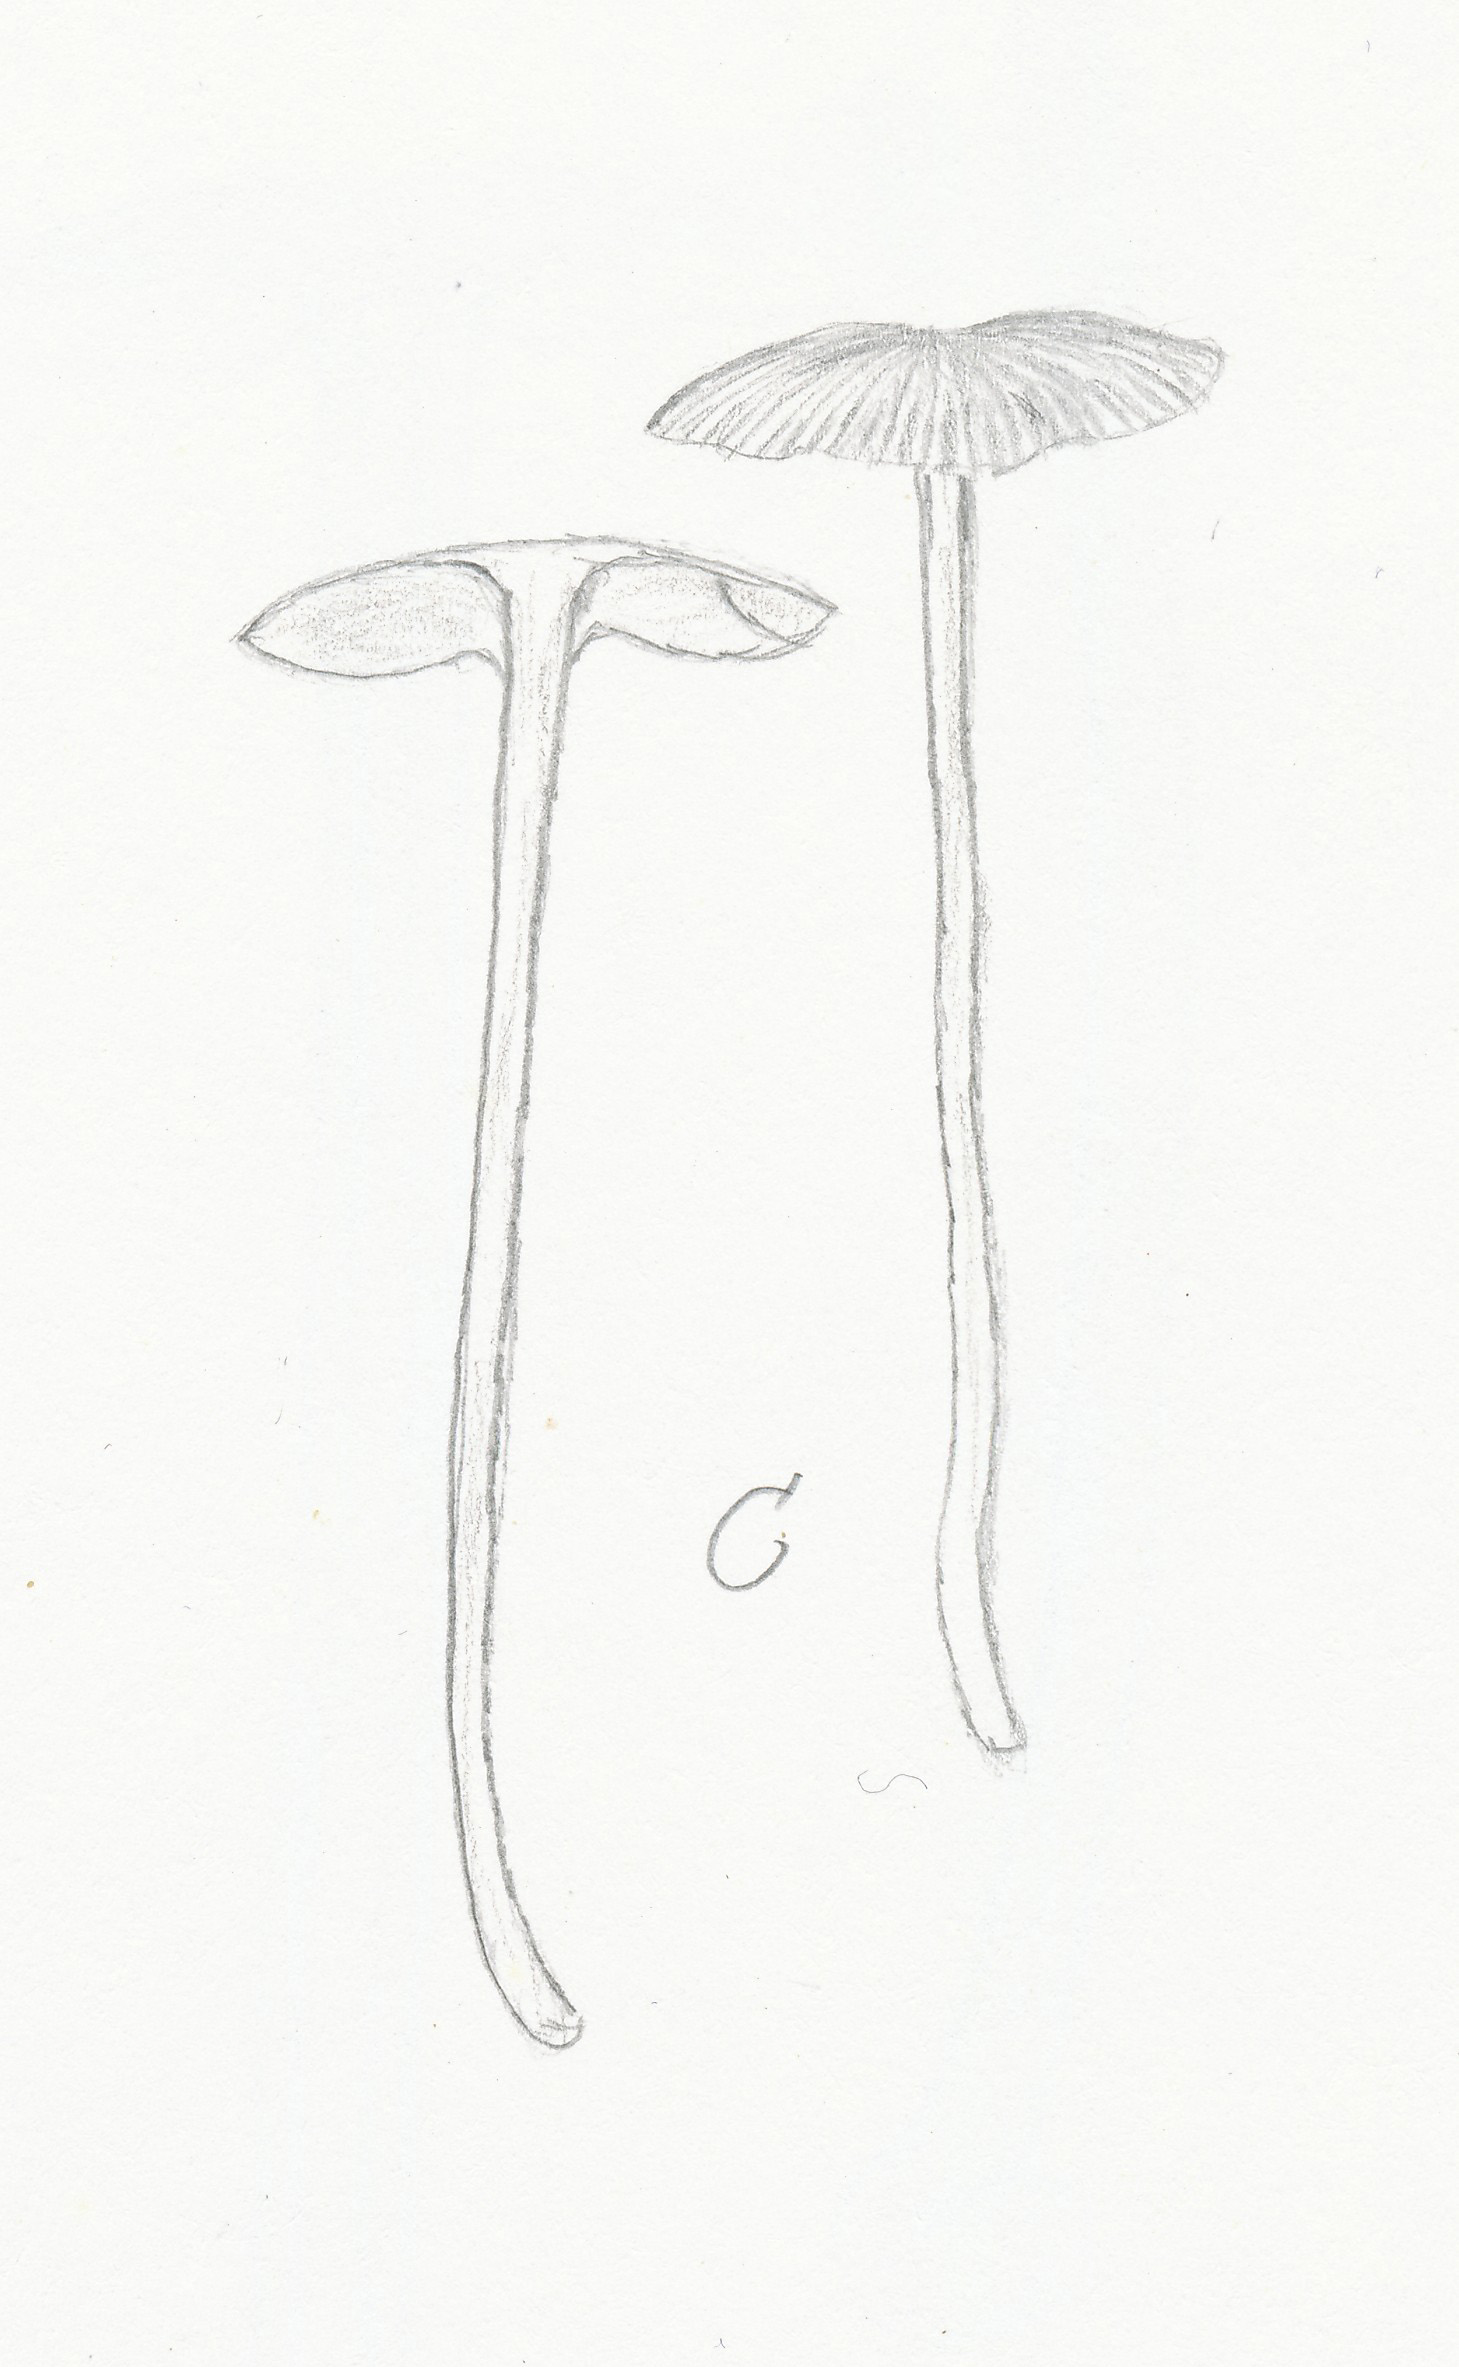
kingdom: Fungi
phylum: Basidiomycota
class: Agaricomycetes
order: Agaricales
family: Entolomataceae
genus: Entoloma
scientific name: Entoloma
